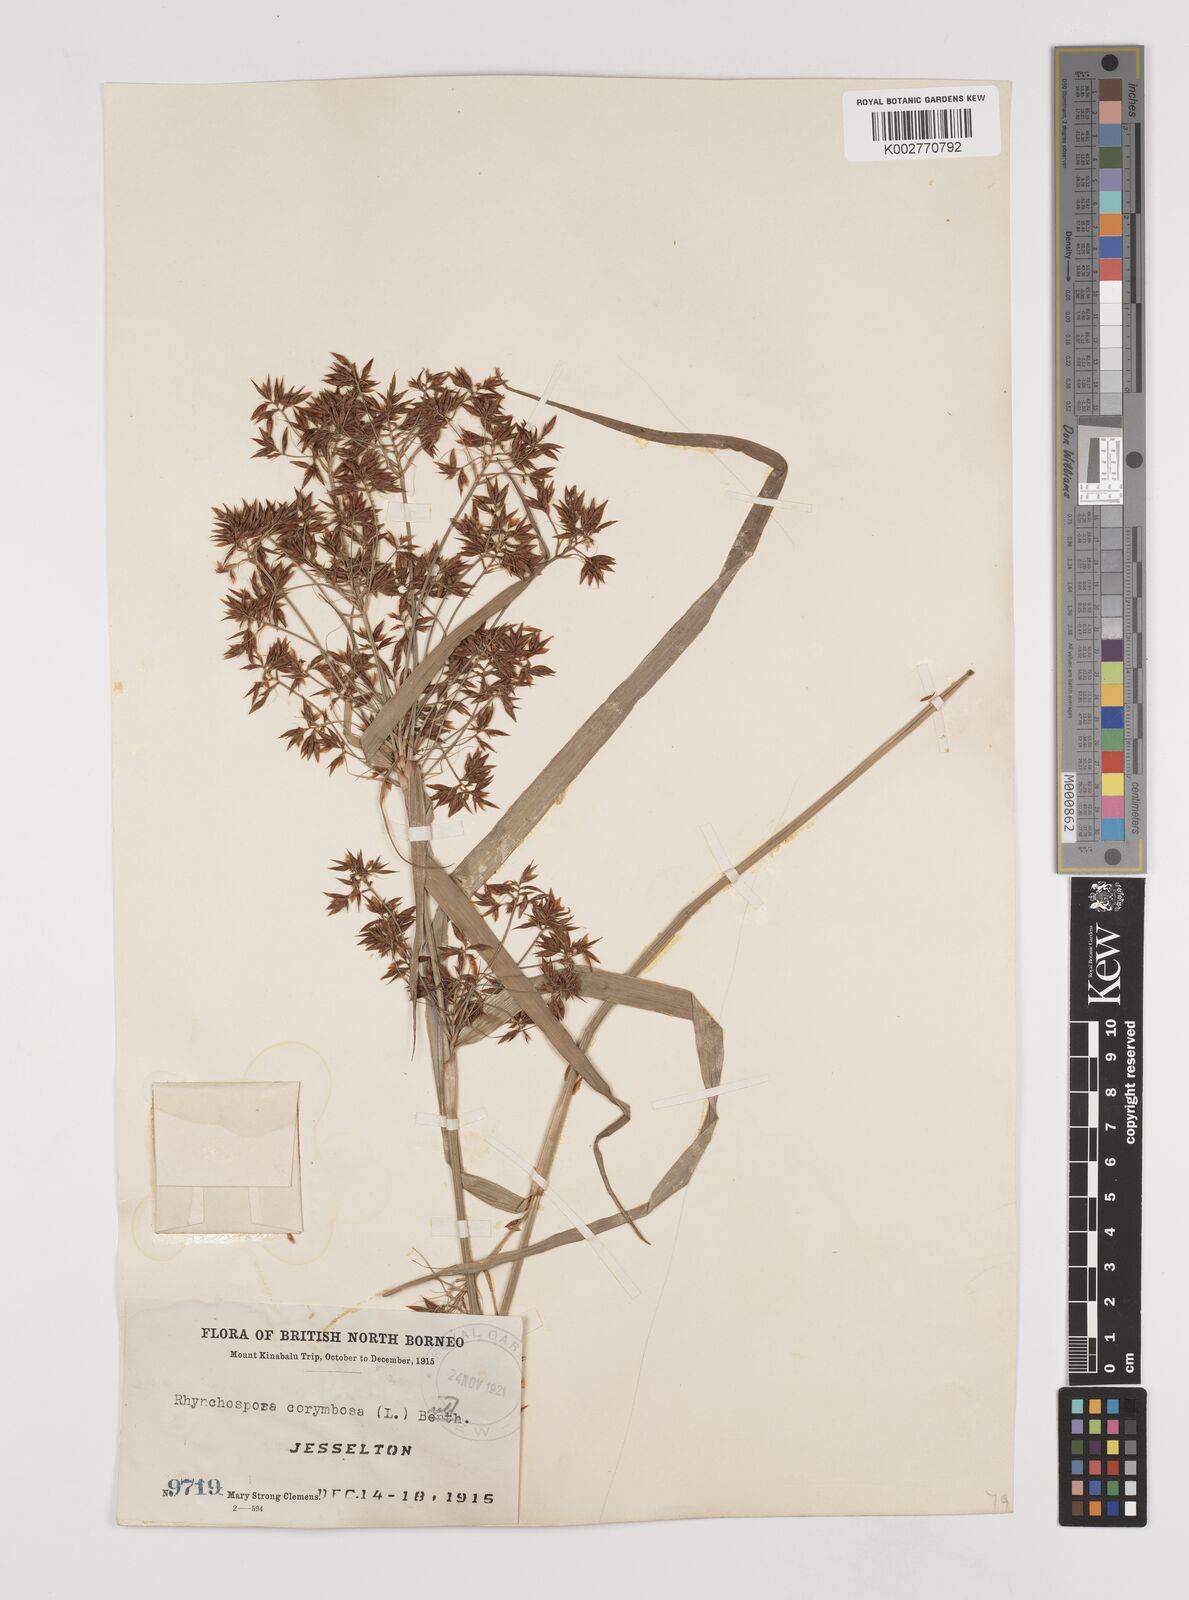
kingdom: Plantae
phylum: Tracheophyta
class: Liliopsida
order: Poales
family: Cyperaceae
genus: Rhynchospora
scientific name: Rhynchospora corymbosa
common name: Golden beak sedge
